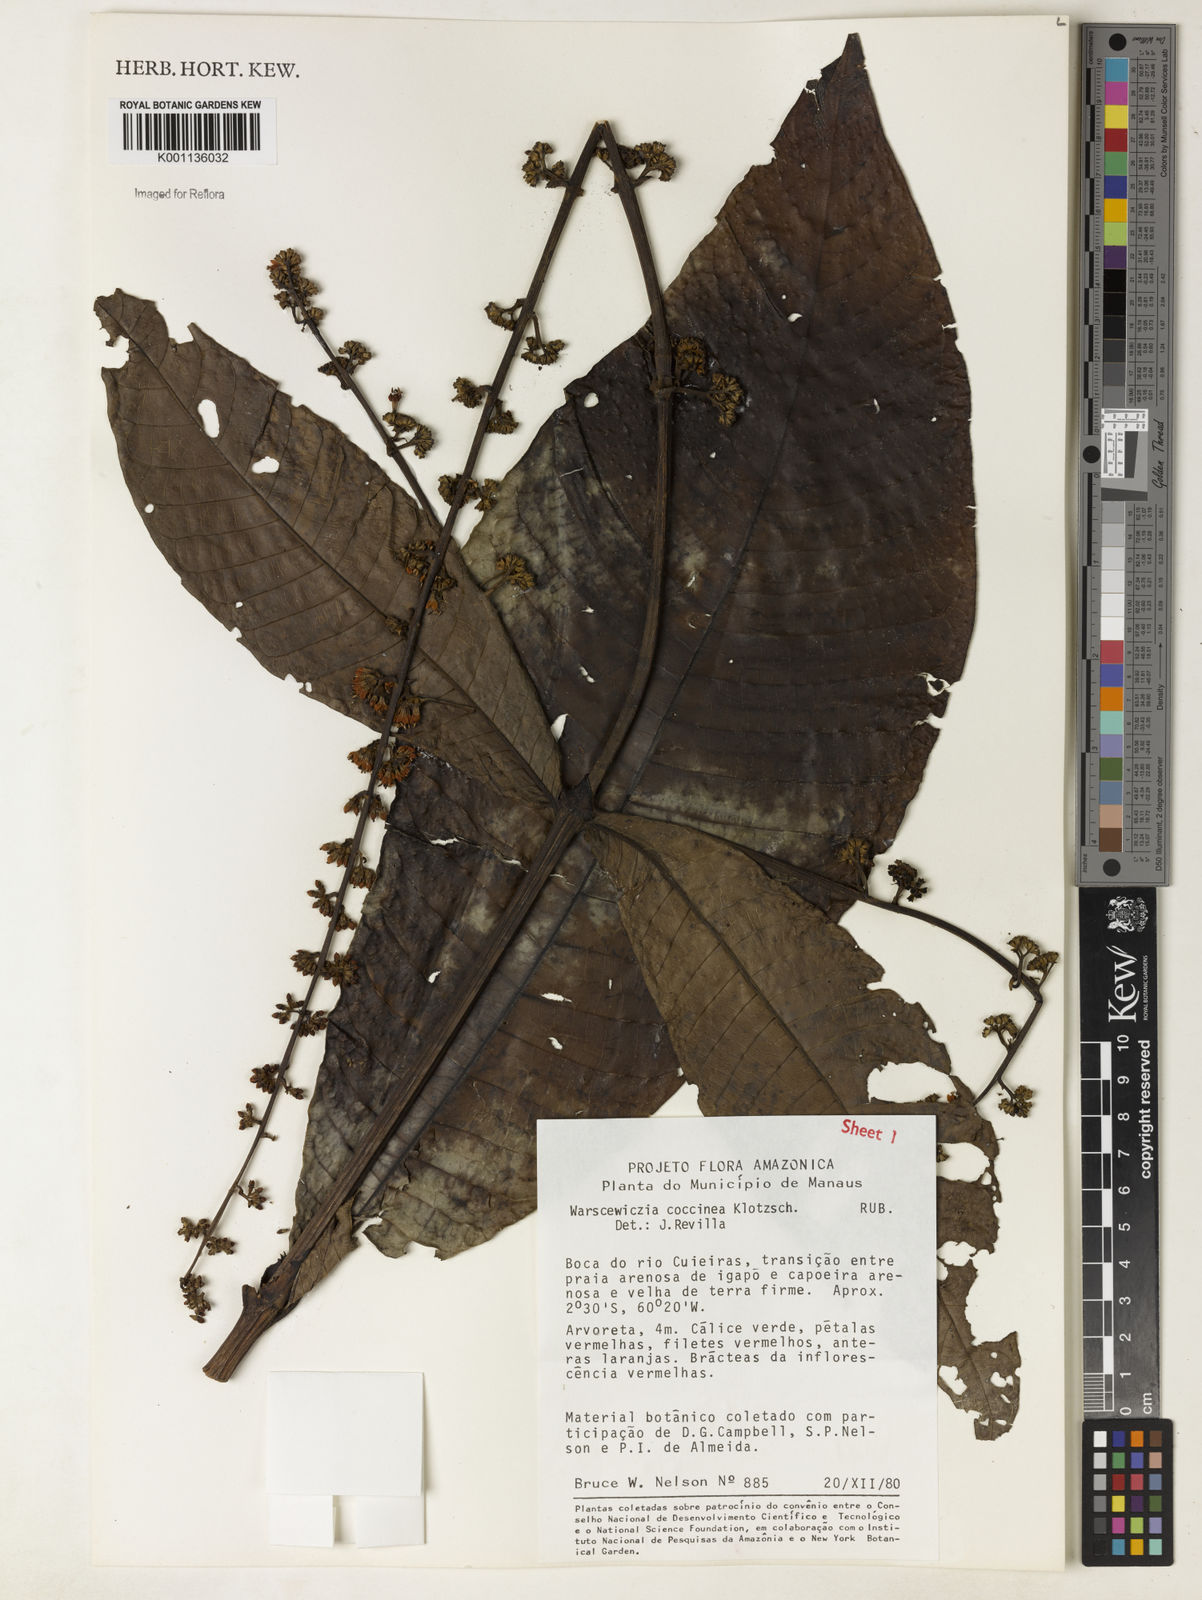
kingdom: Plantae
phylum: Tracheophyta
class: Magnoliopsida
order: Gentianales
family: Rubiaceae
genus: Warszewiczia
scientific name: Warszewiczia coccinea
